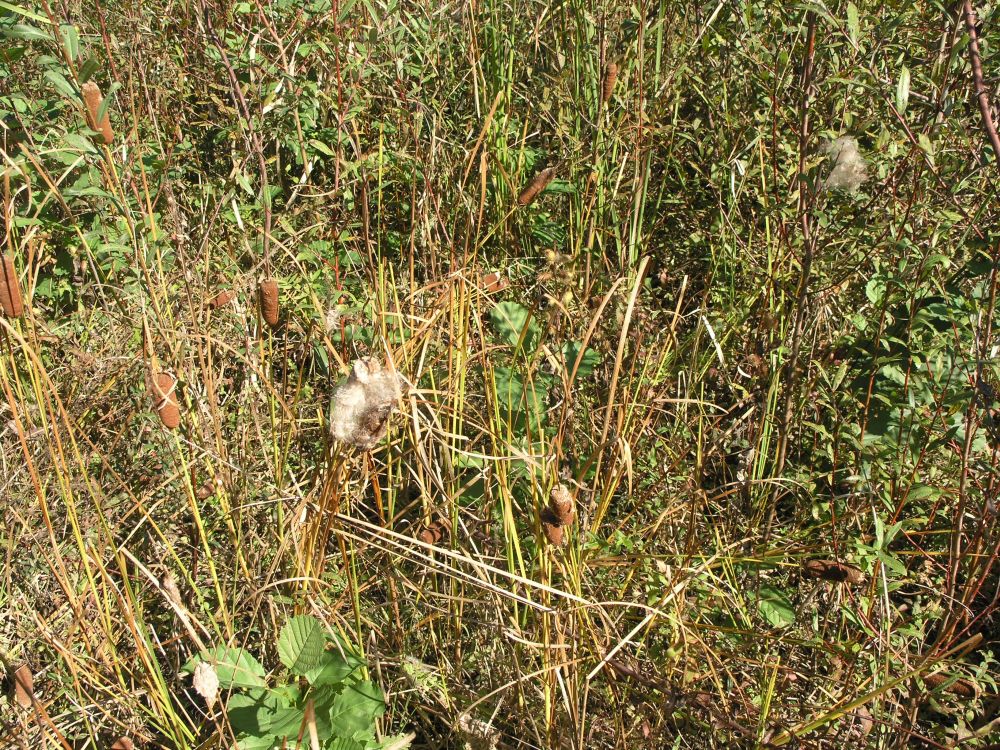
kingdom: Plantae
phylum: Tracheophyta
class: Liliopsida
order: Poales
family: Typhaceae
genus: Typha
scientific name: Typha laxmannii
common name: Laxman’s bulrush
